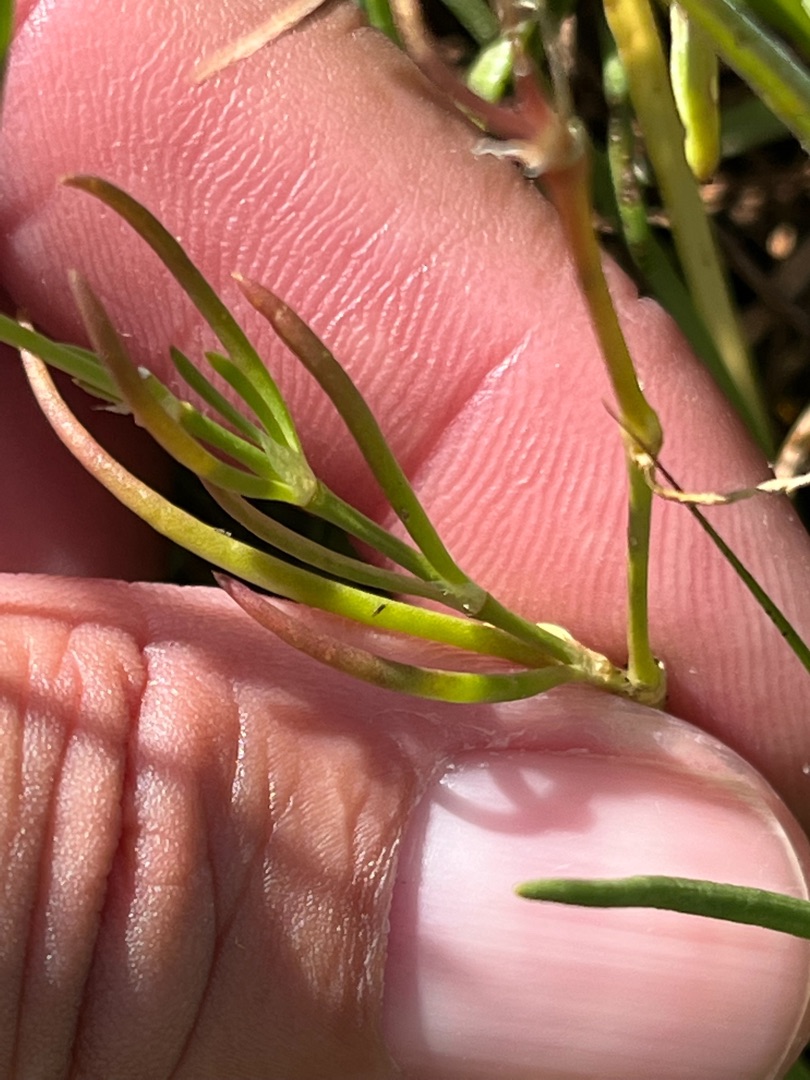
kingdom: Plantae
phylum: Tracheophyta
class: Magnoliopsida
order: Caryophyllales
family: Caryophyllaceae
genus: Spergularia
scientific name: Spergularia media
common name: Vingefrøet hindeknæ
